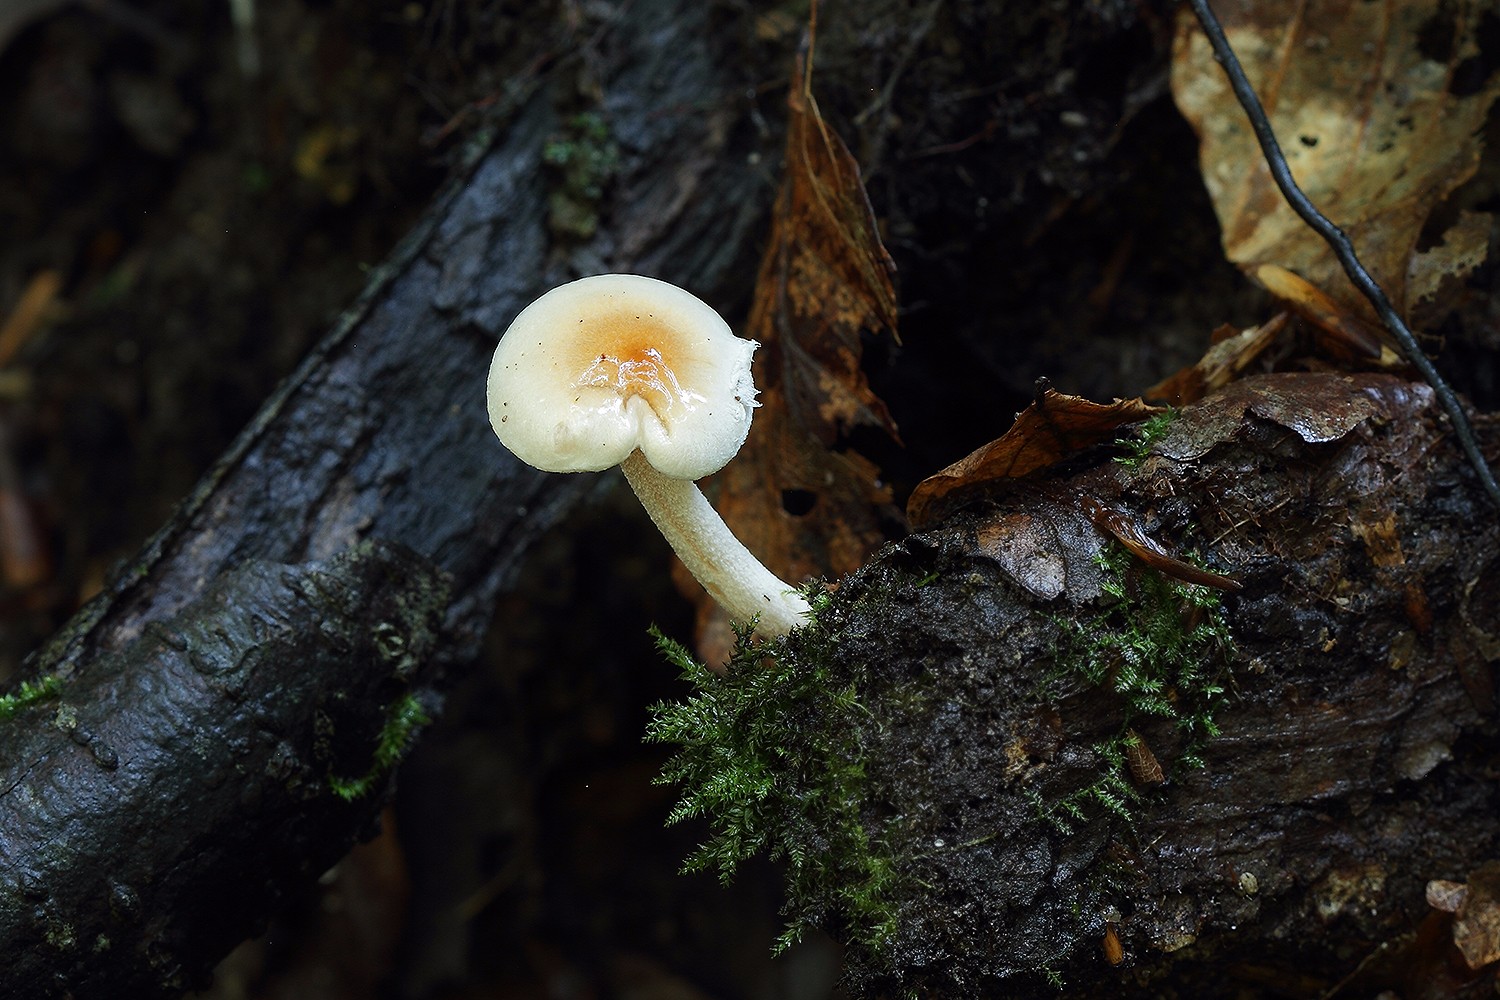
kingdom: Fungi
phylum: Basidiomycota
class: Agaricomycetes
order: Agaricales
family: Hygrophoraceae
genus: Hygrophorus
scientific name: Hygrophorus unicolor
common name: orangeøjet sneglehat
